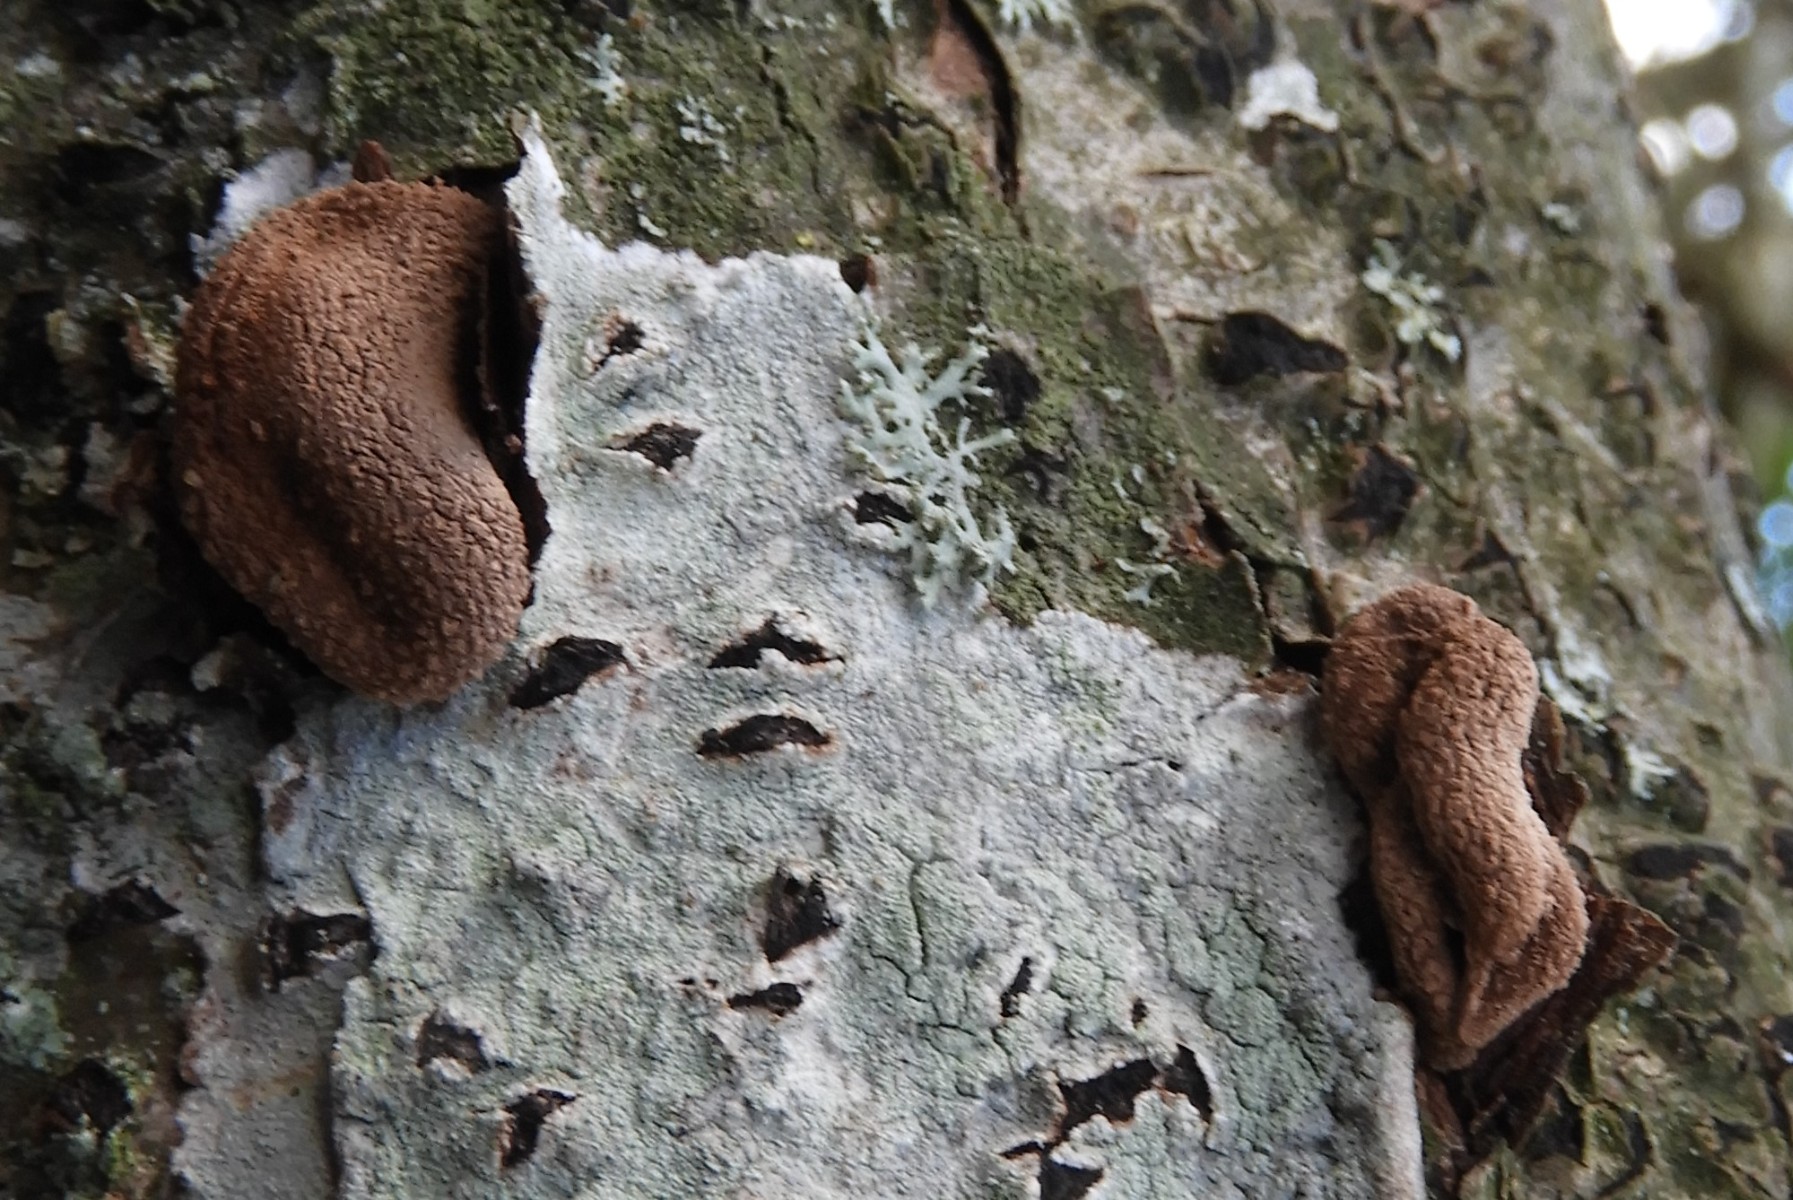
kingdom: Fungi
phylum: Ascomycota
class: Leotiomycetes
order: Helotiales
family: Cenangiaceae
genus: Encoelia
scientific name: Encoelia furfuracea
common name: hassel-læderskive
